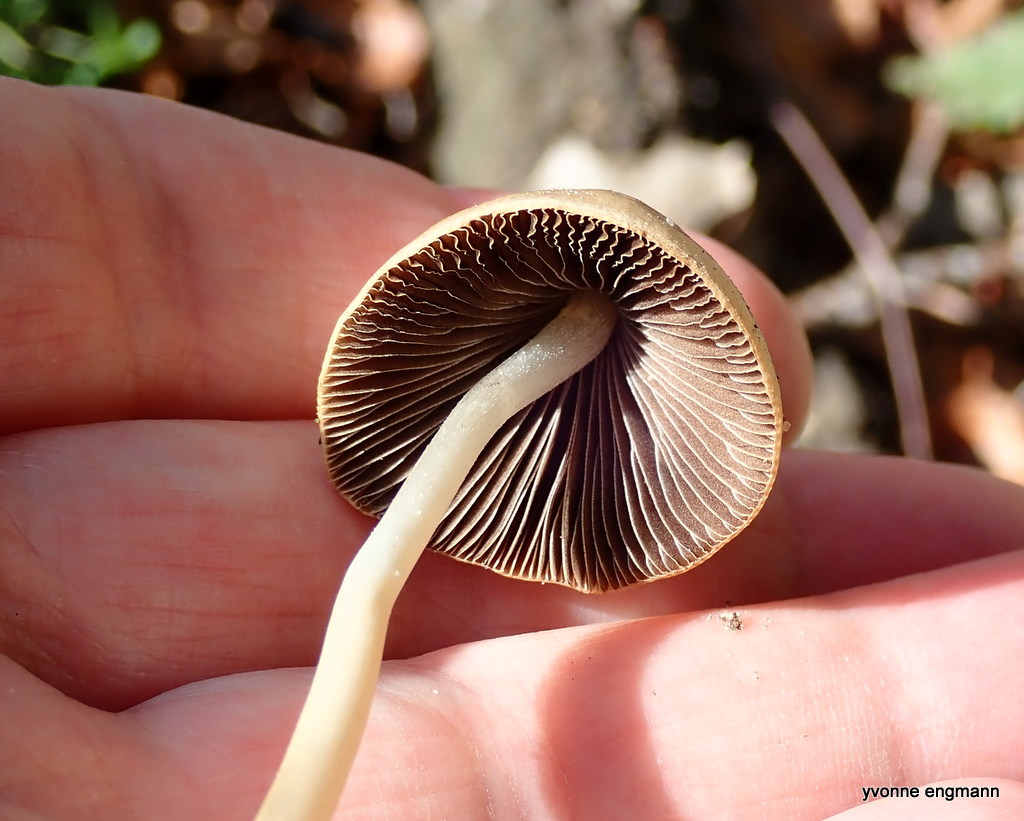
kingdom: Fungi
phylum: Basidiomycota
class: Agaricomycetes
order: Agaricales
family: Psathyrellaceae
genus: Parasola
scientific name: Parasola conopilea
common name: kegle-hjulhat
